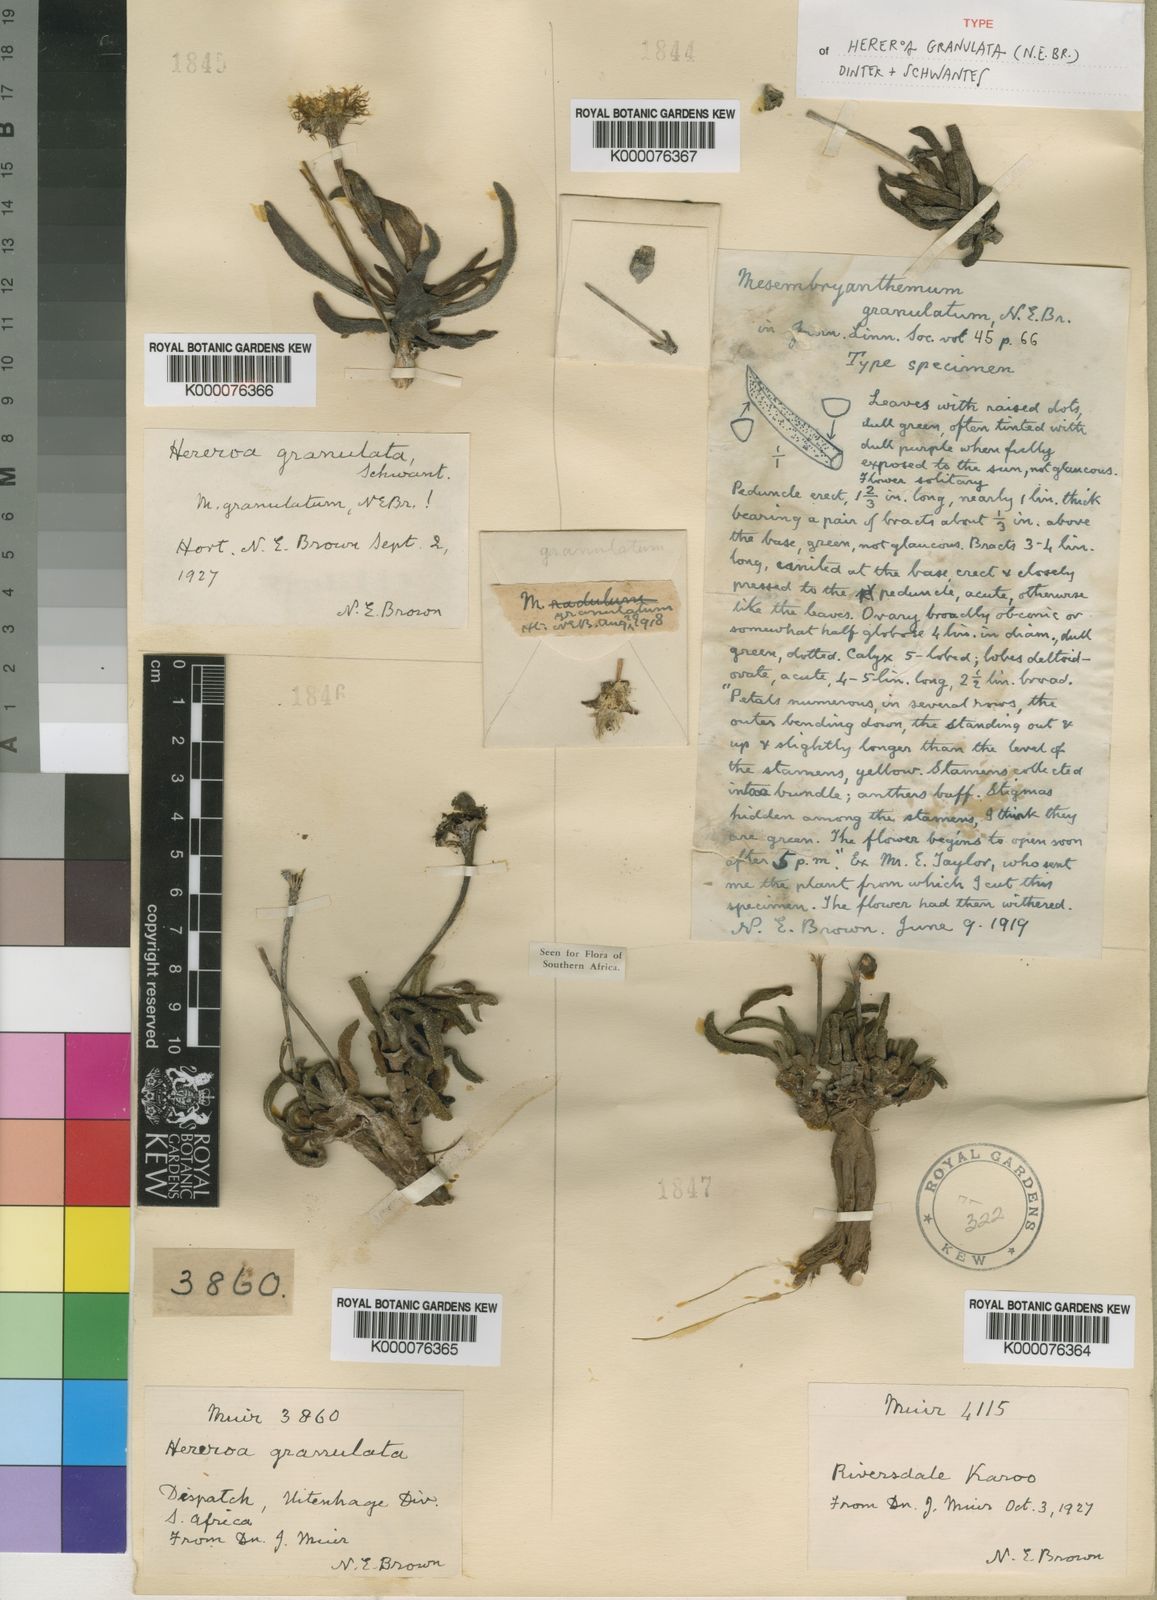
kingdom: Plantae
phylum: Tracheophyta
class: Magnoliopsida
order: Caryophyllales
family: Aizoaceae
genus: Dracophilus
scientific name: Dracophilus Hereroa granulata
